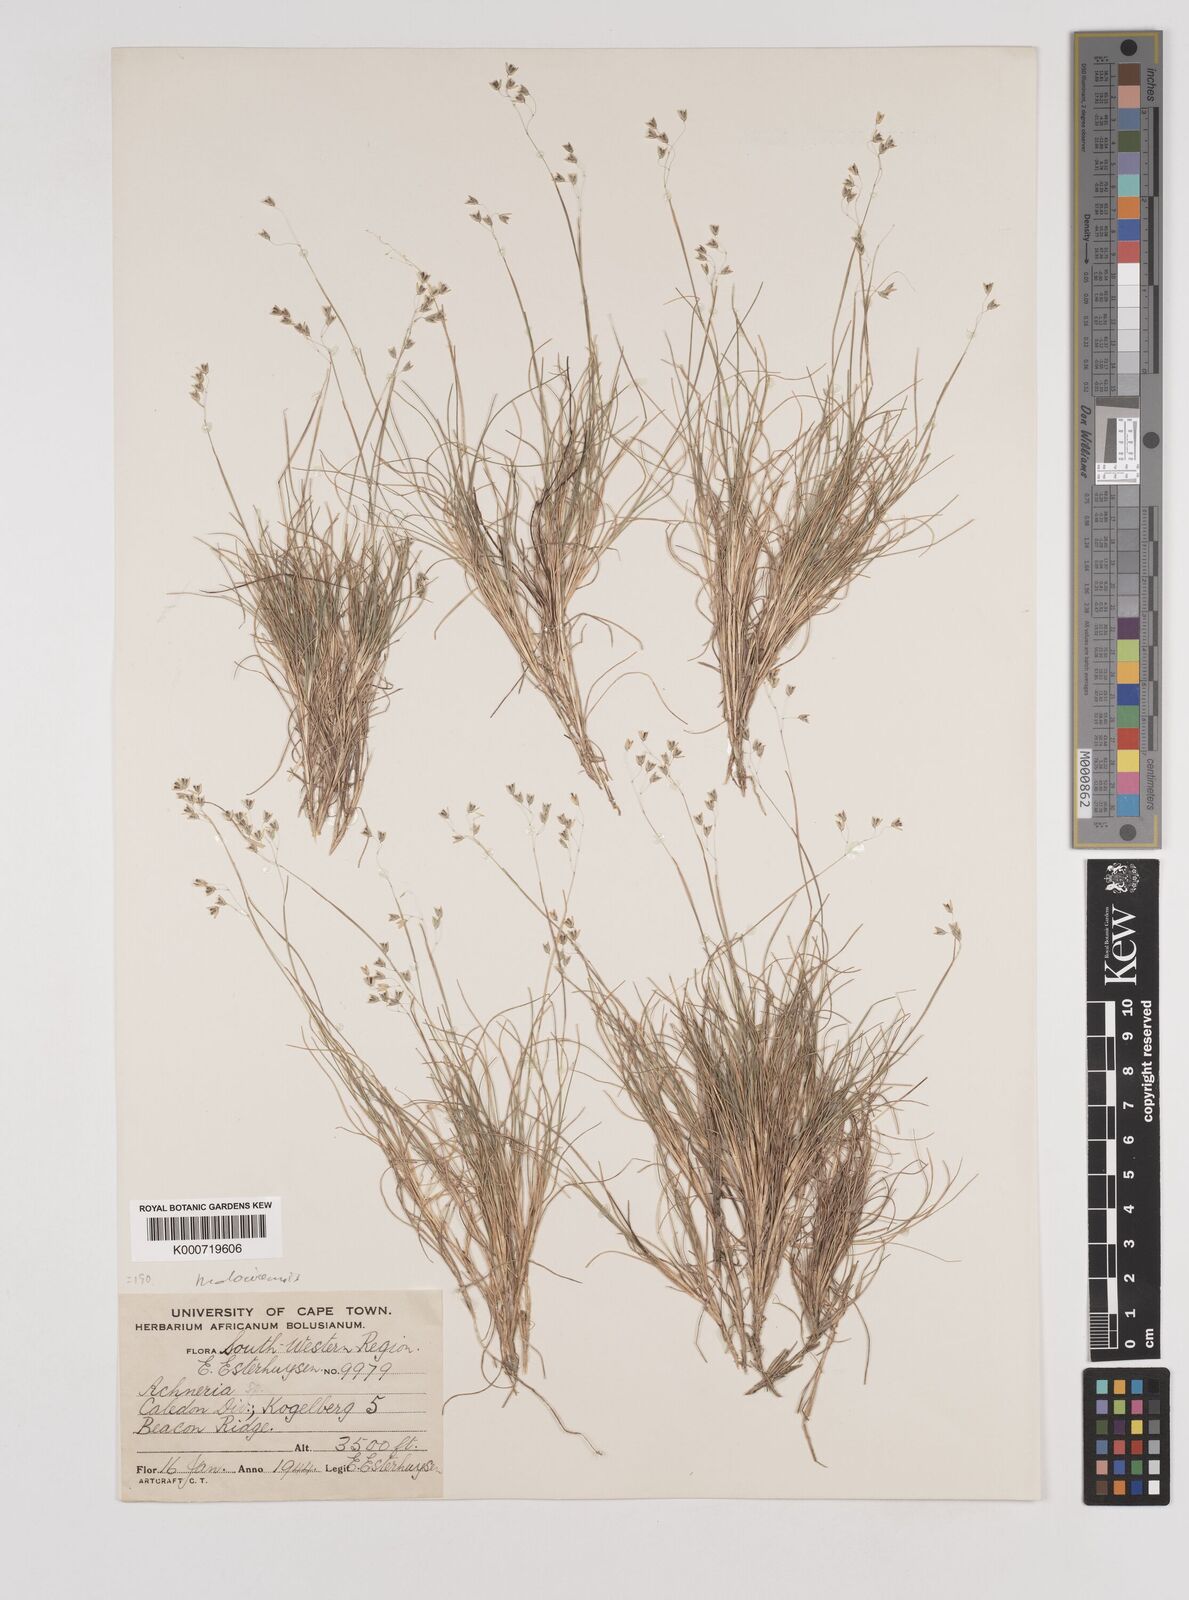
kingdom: Plantae
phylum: Tracheophyta
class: Liliopsida
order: Poales
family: Poaceae
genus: Pentameris
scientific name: Pentameris malouinensis
